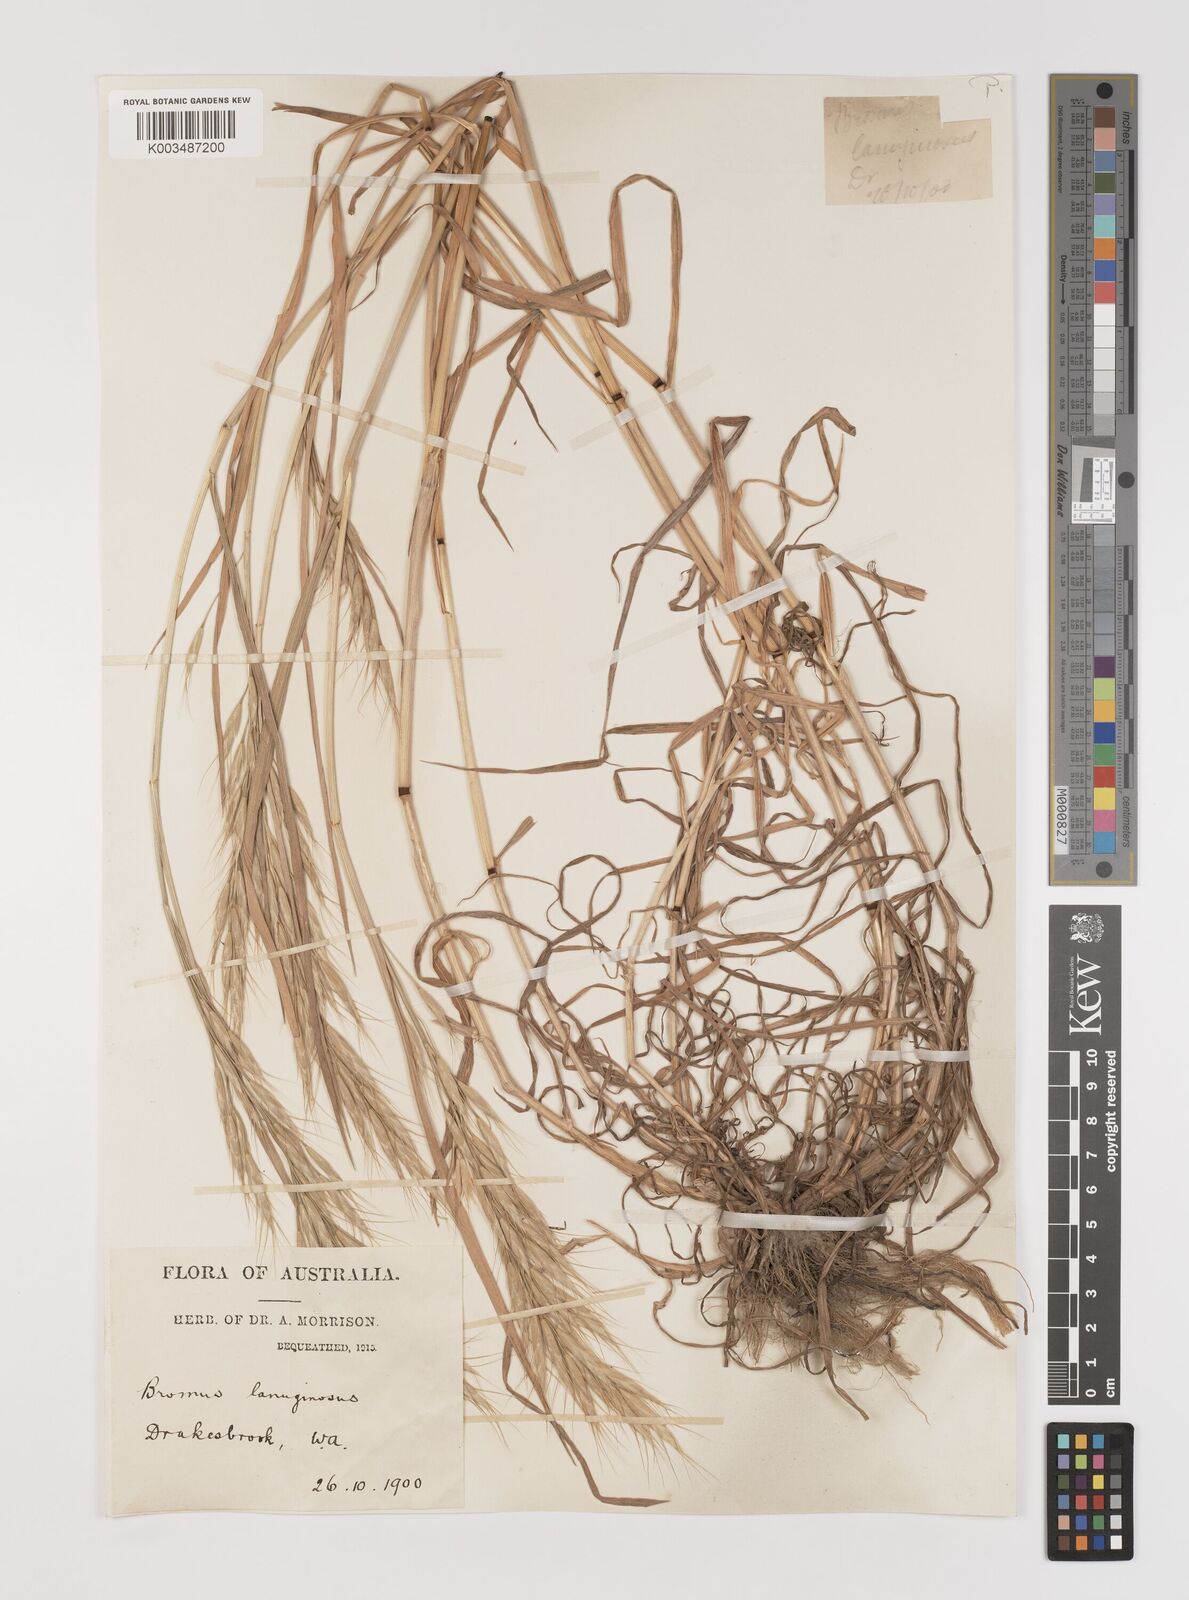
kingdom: Plantae
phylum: Tracheophyta
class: Liliopsida
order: Poales
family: Poaceae
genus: Bromus
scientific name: Bromus lanceolatus
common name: Mediterranean brome
